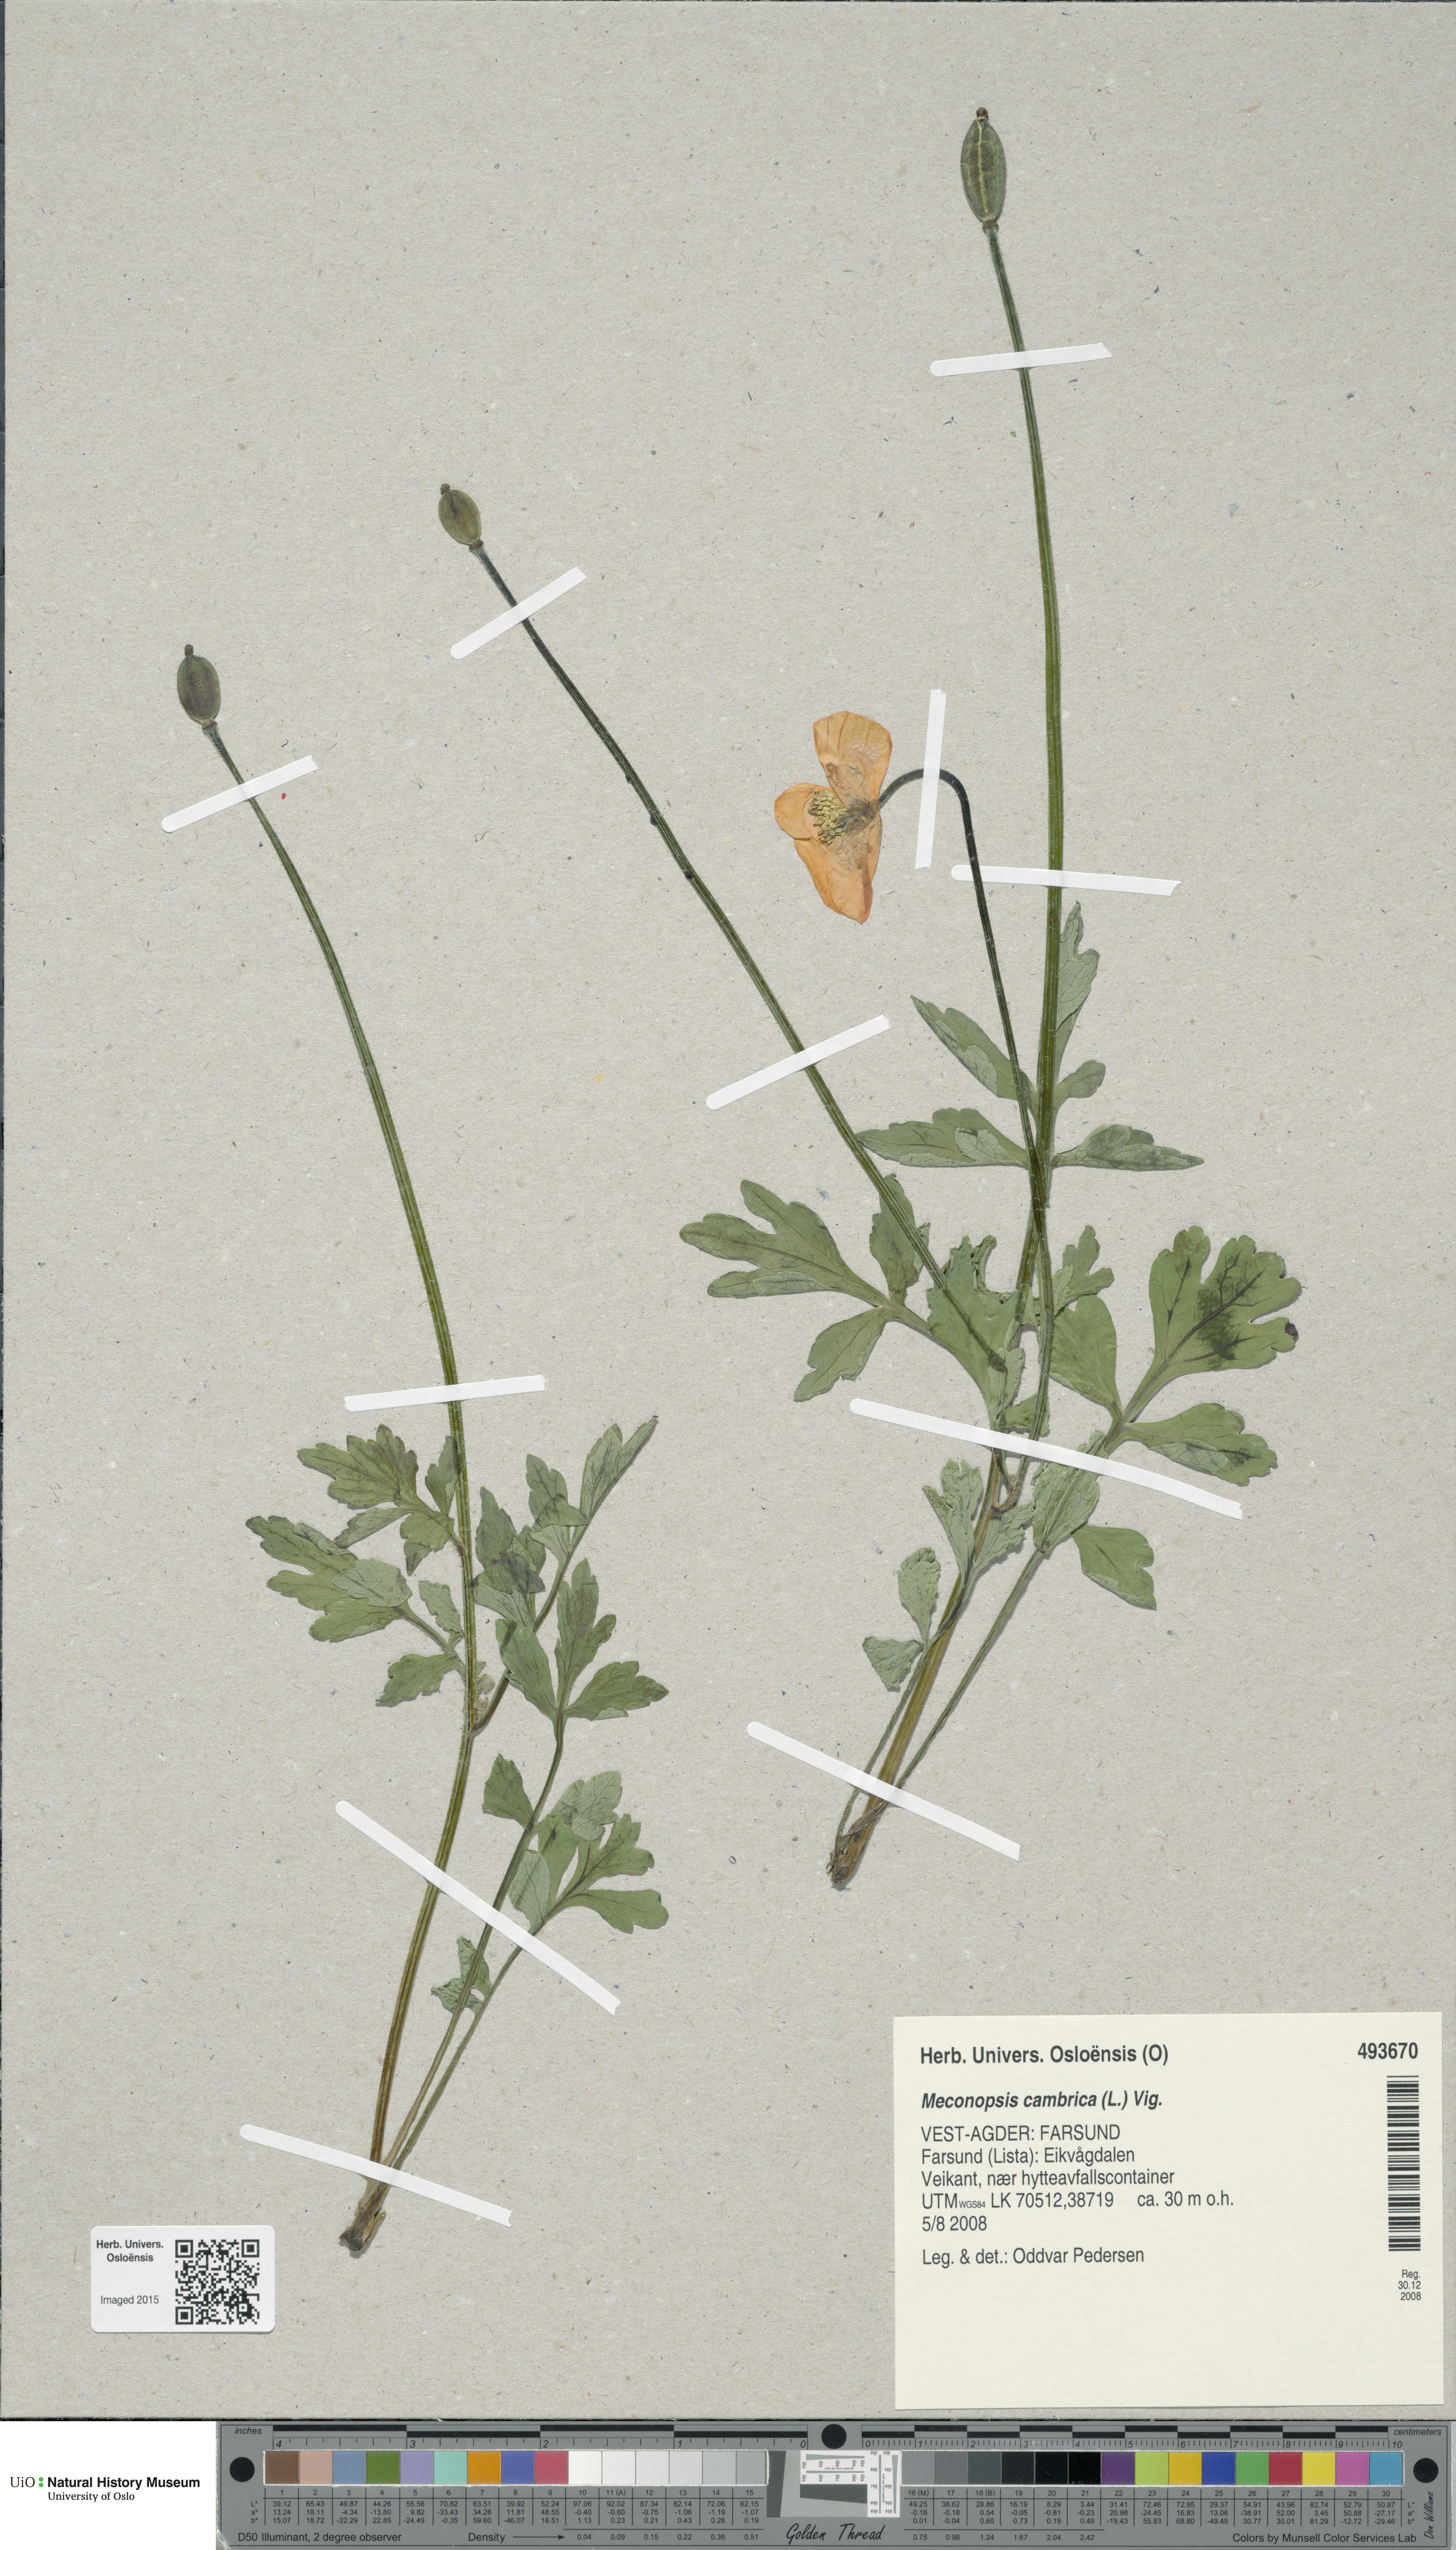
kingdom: Plantae
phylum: Tracheophyta
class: Magnoliopsida
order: Ranunculales
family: Papaveraceae
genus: Papaver
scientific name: Papaver cambricum
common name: Poppy
